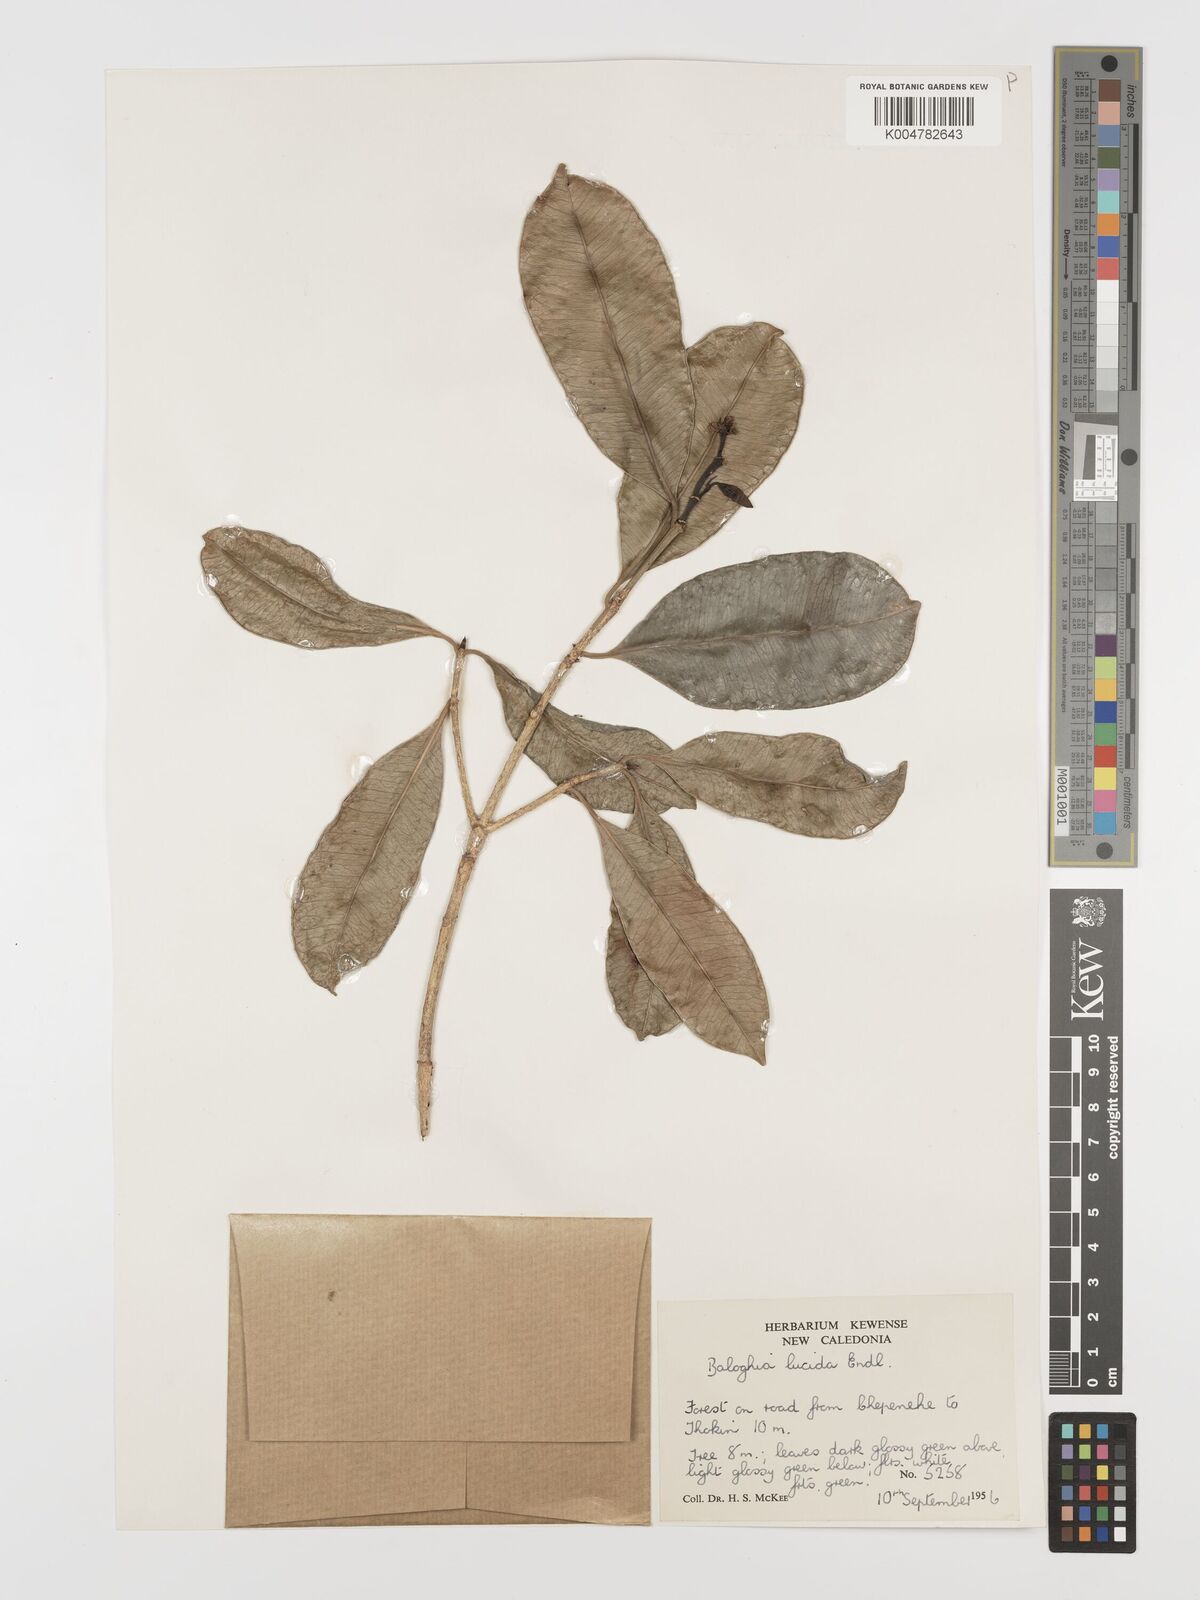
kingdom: Plantae
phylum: Tracheophyta
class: Magnoliopsida
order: Malpighiales
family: Euphorbiaceae
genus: Baloghia
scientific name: Baloghia inophylla
